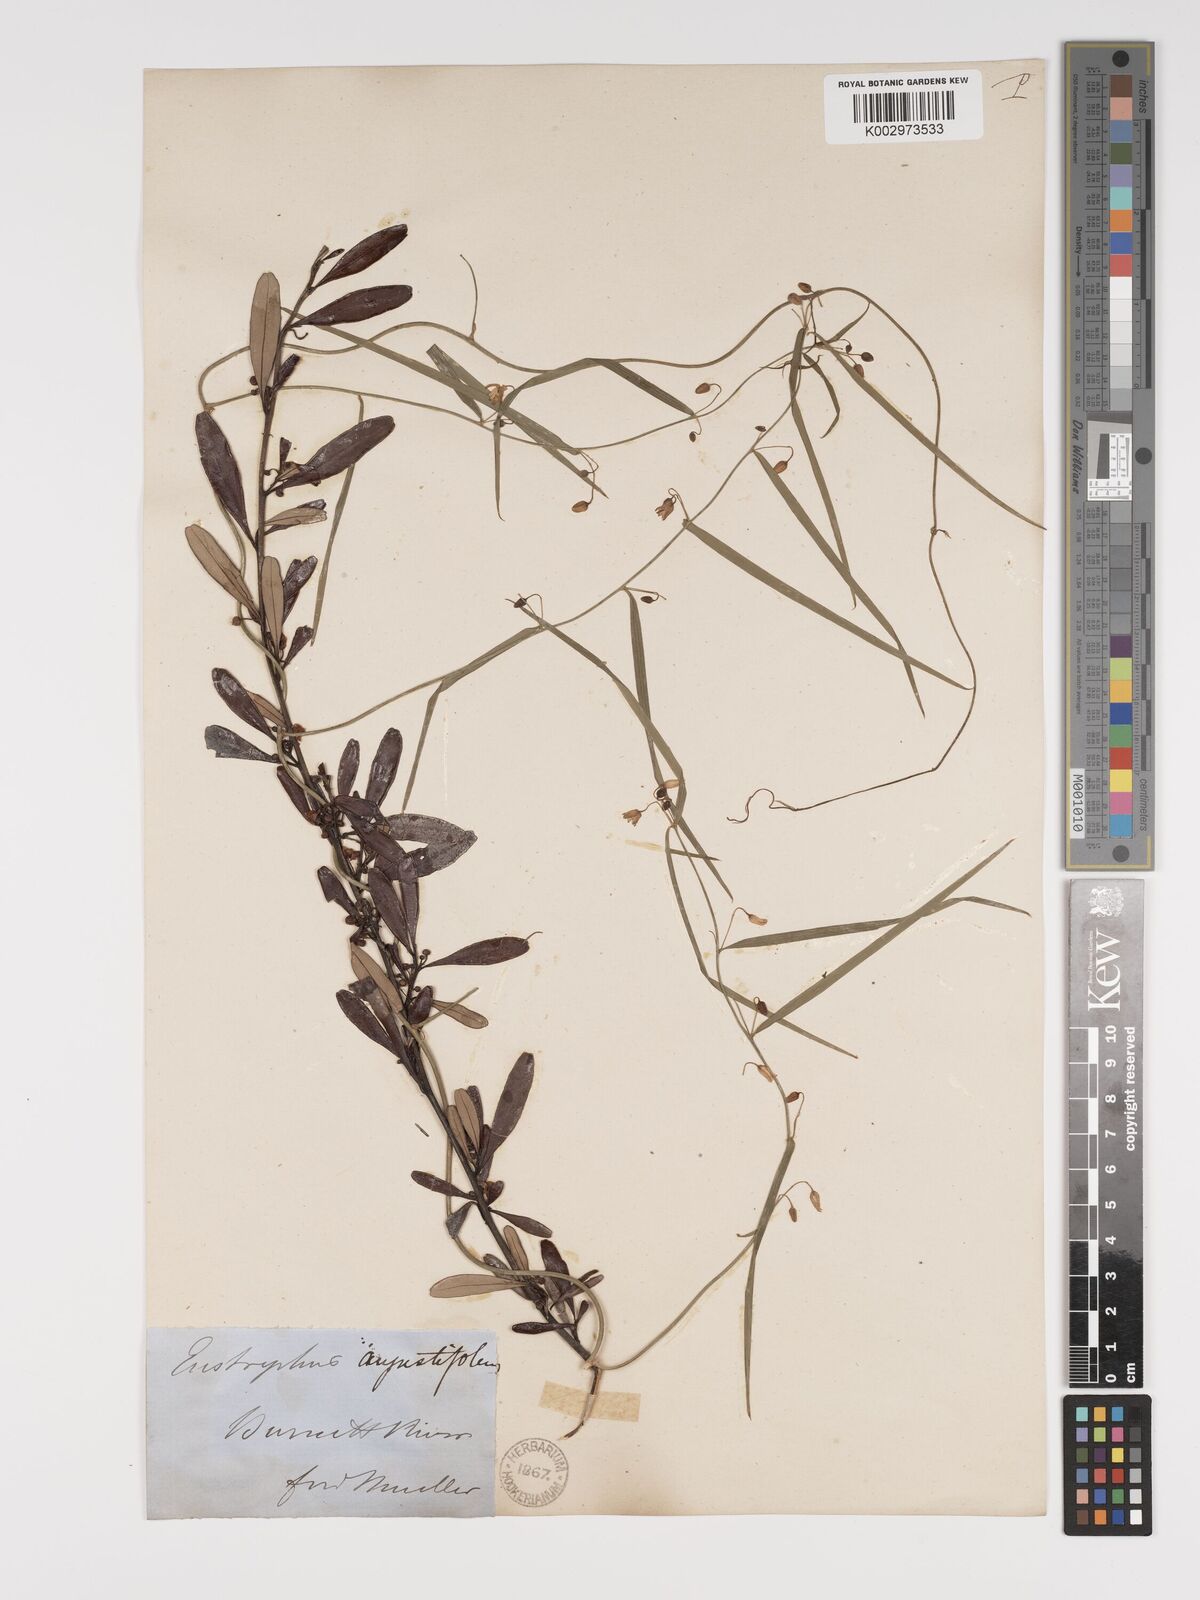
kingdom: Plantae
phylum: Tracheophyta
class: Liliopsida
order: Asparagales
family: Asparagaceae
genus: Eustrephus
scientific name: Eustrephus latifolius
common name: Orangevine
